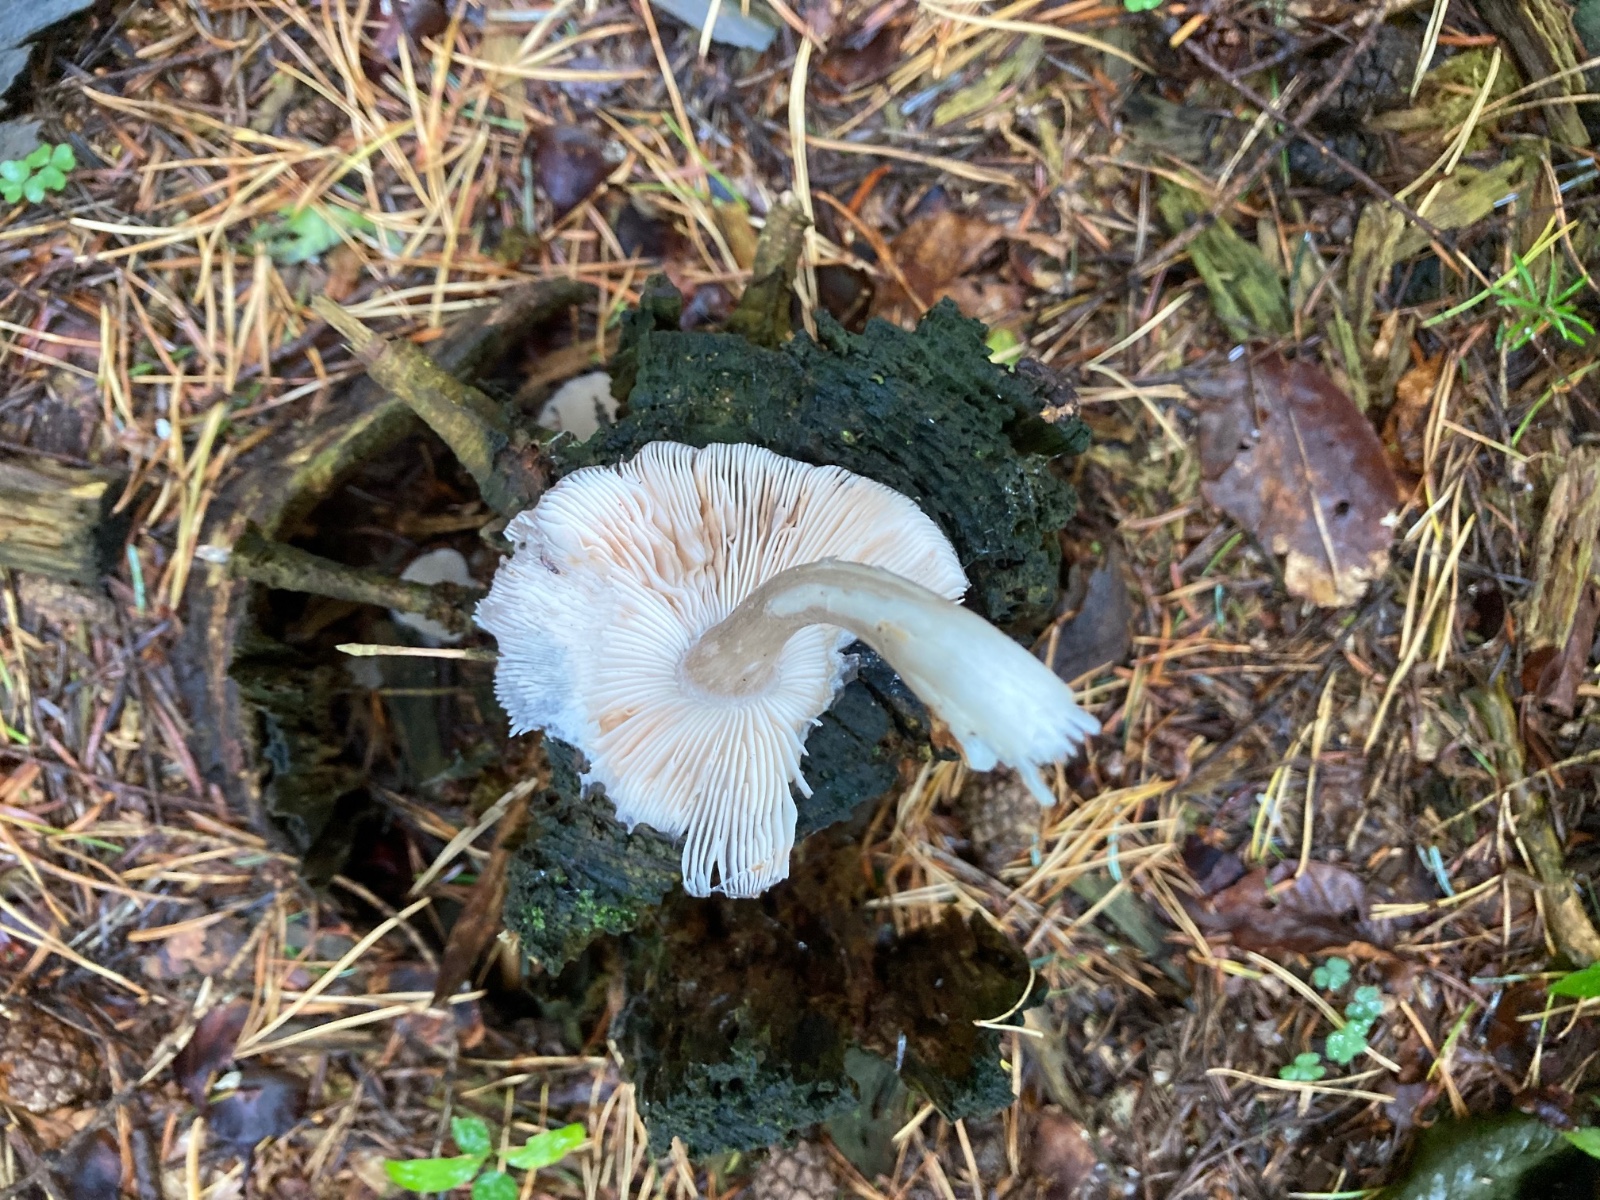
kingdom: Fungi
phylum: Basidiomycota
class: Agaricomycetes
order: Agaricales
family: Pluteaceae
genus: Pluteus
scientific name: Pluteus pouzarianus
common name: plantage-skærmhat
